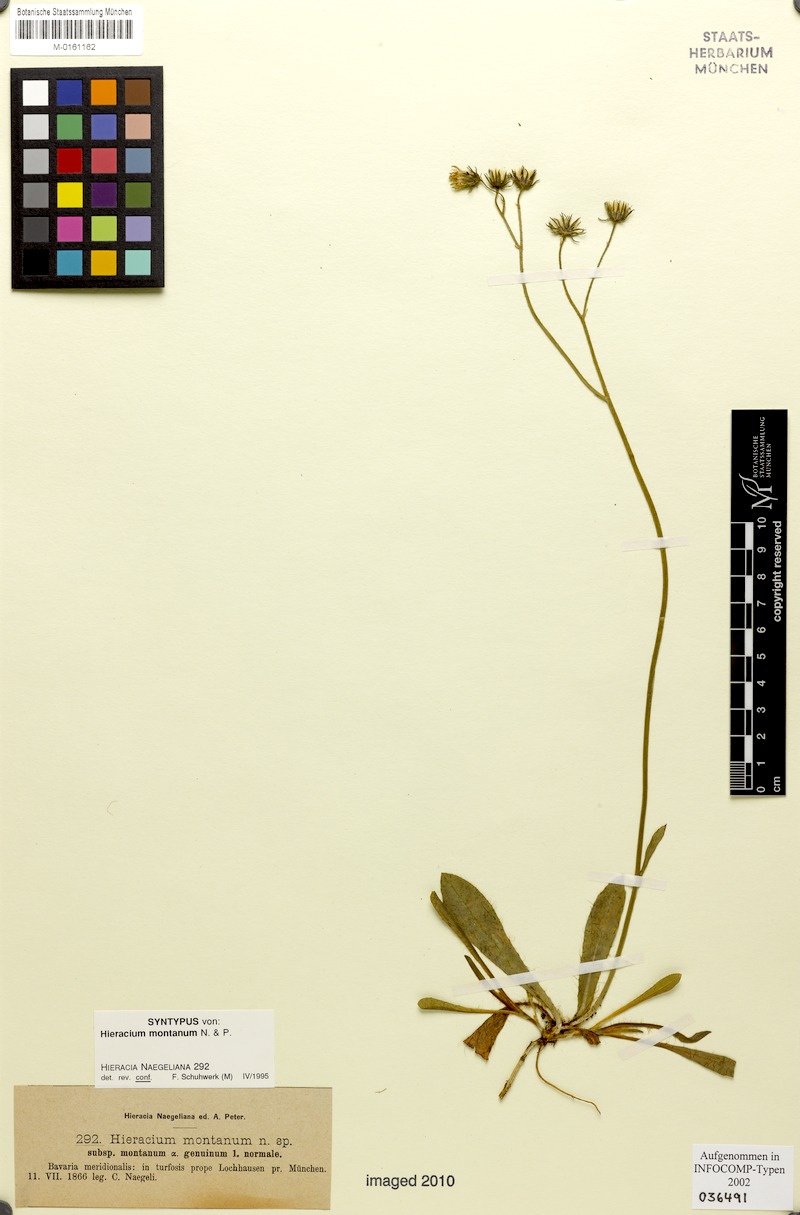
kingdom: Plantae
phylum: Tracheophyta
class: Magnoliopsida
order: Asterales
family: Asteraceae
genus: Pilosella
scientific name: Pilosella chomatophila
